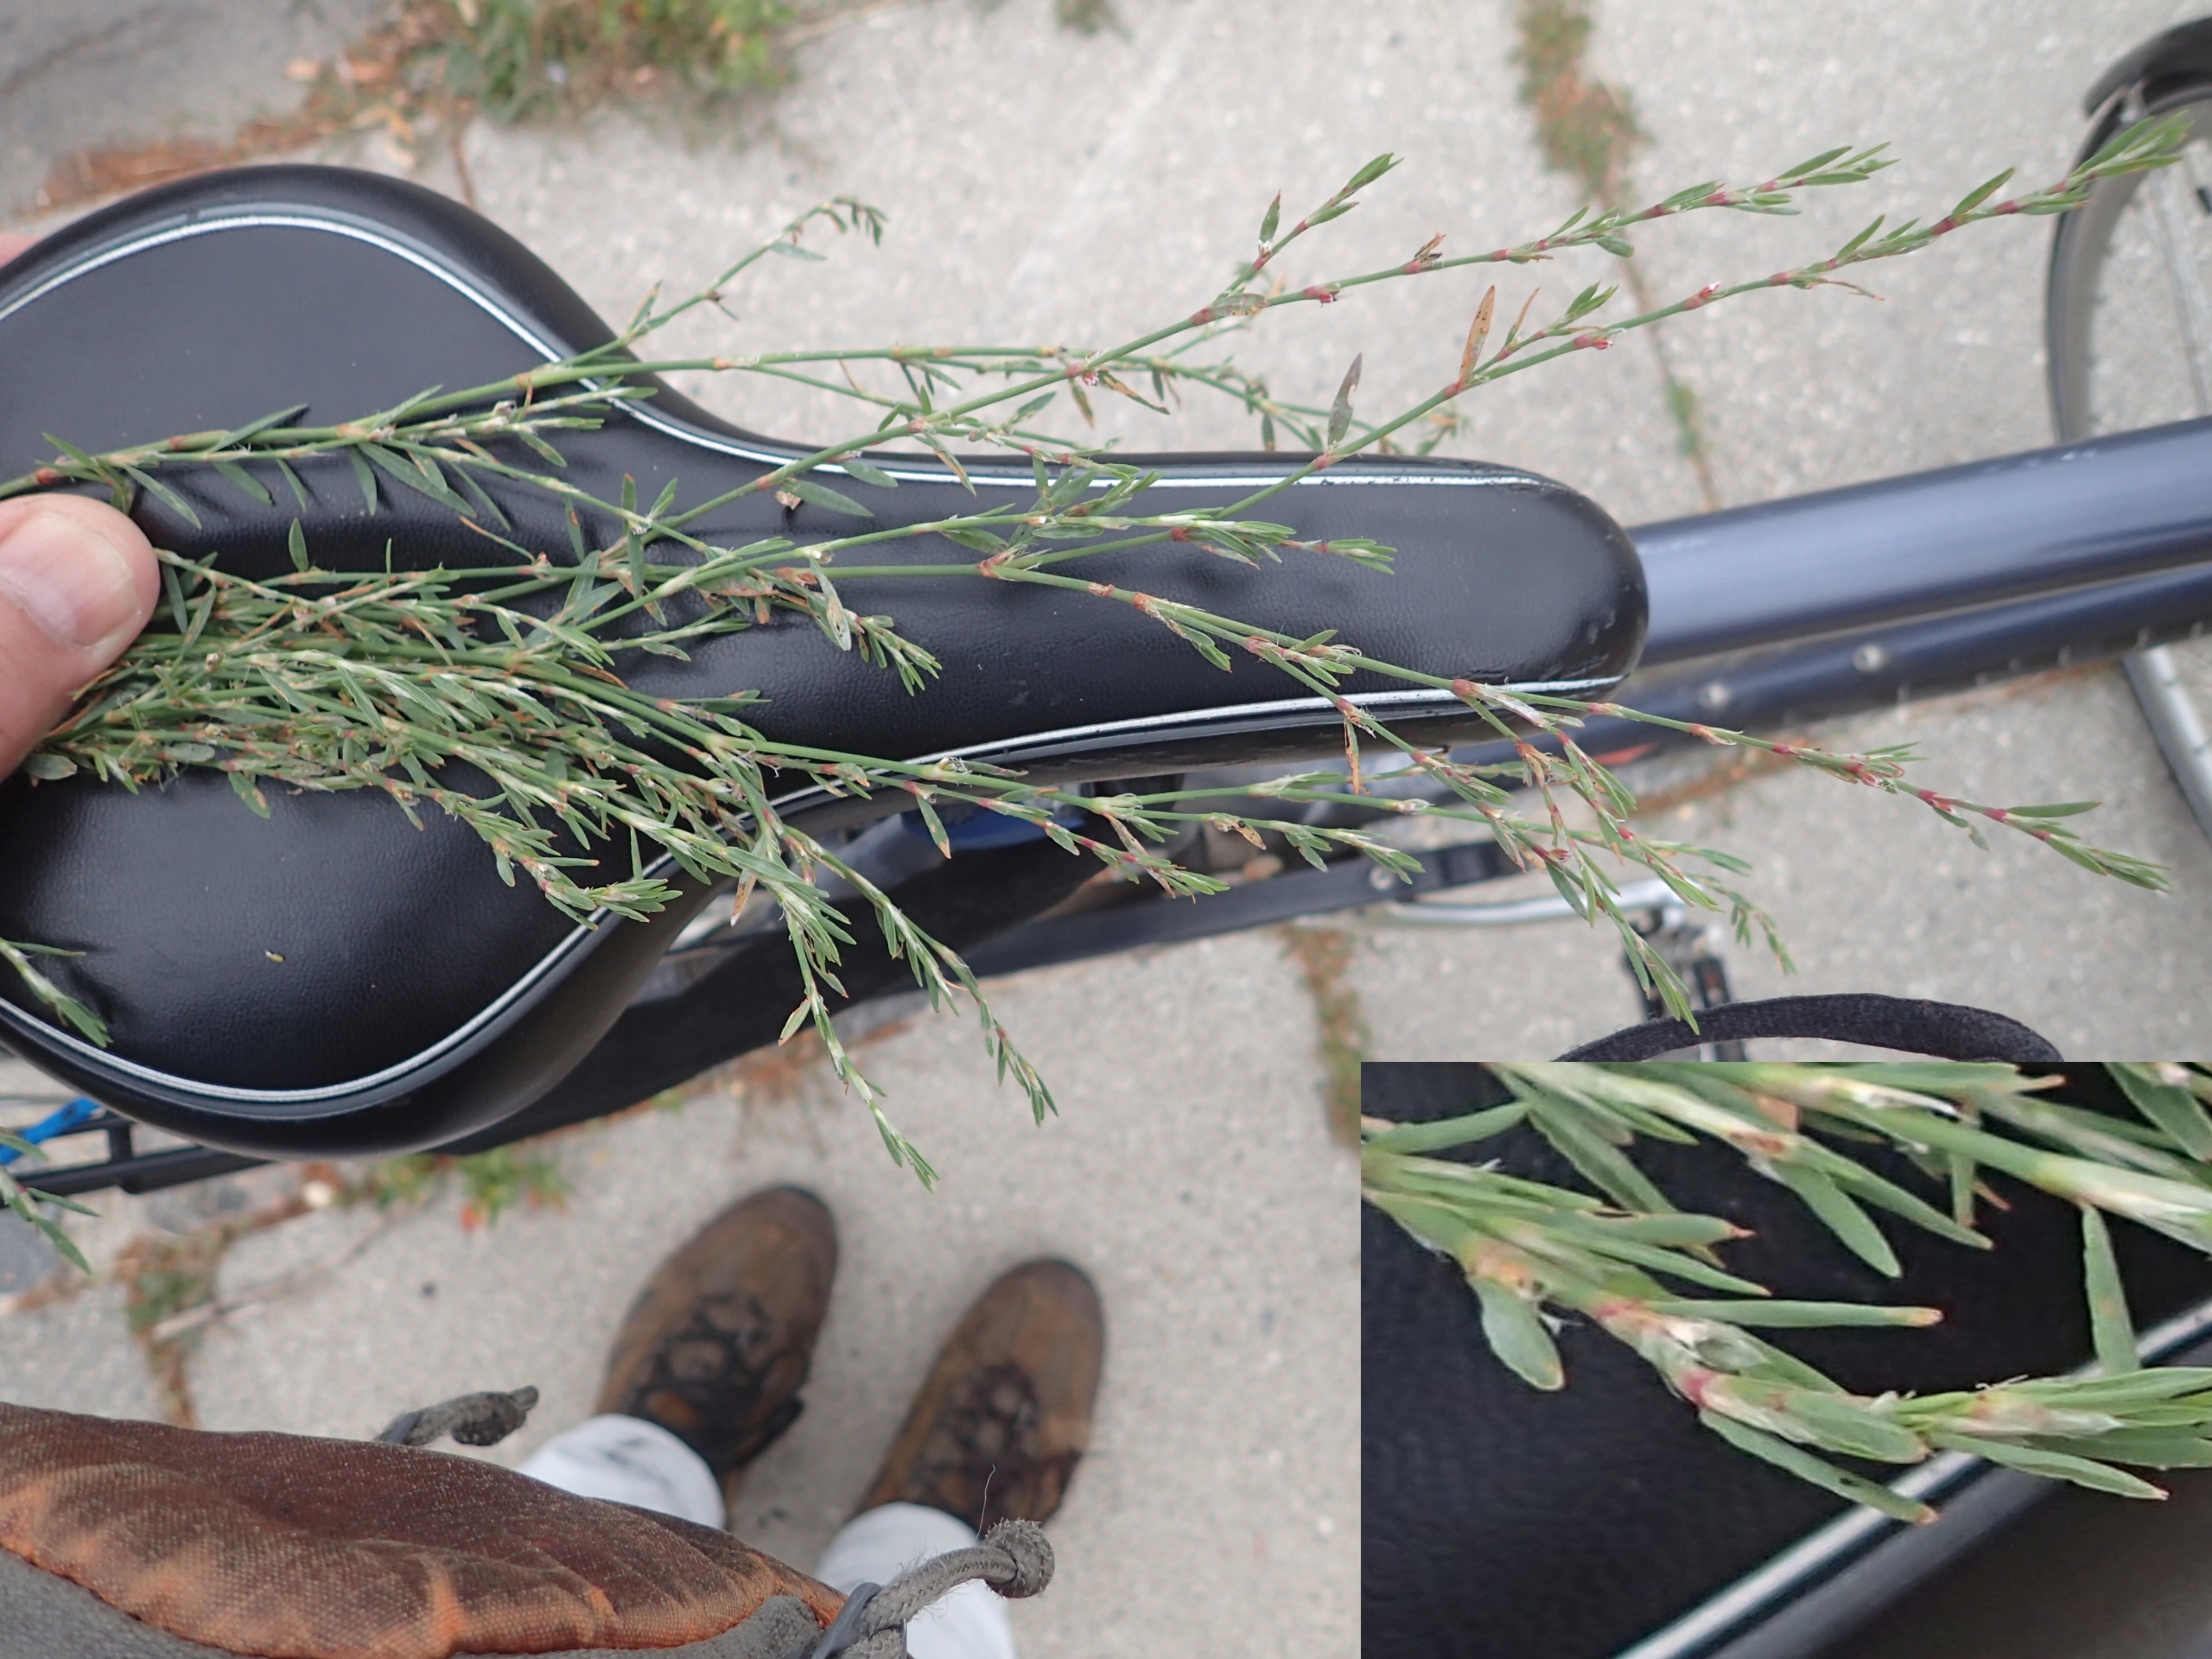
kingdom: Plantae
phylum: Tracheophyta
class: Magnoliopsida
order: Caryophyllales
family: Polygonaceae
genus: Polygonum
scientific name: Polygonum aviculare
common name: Smalbladet vej-pileurt
